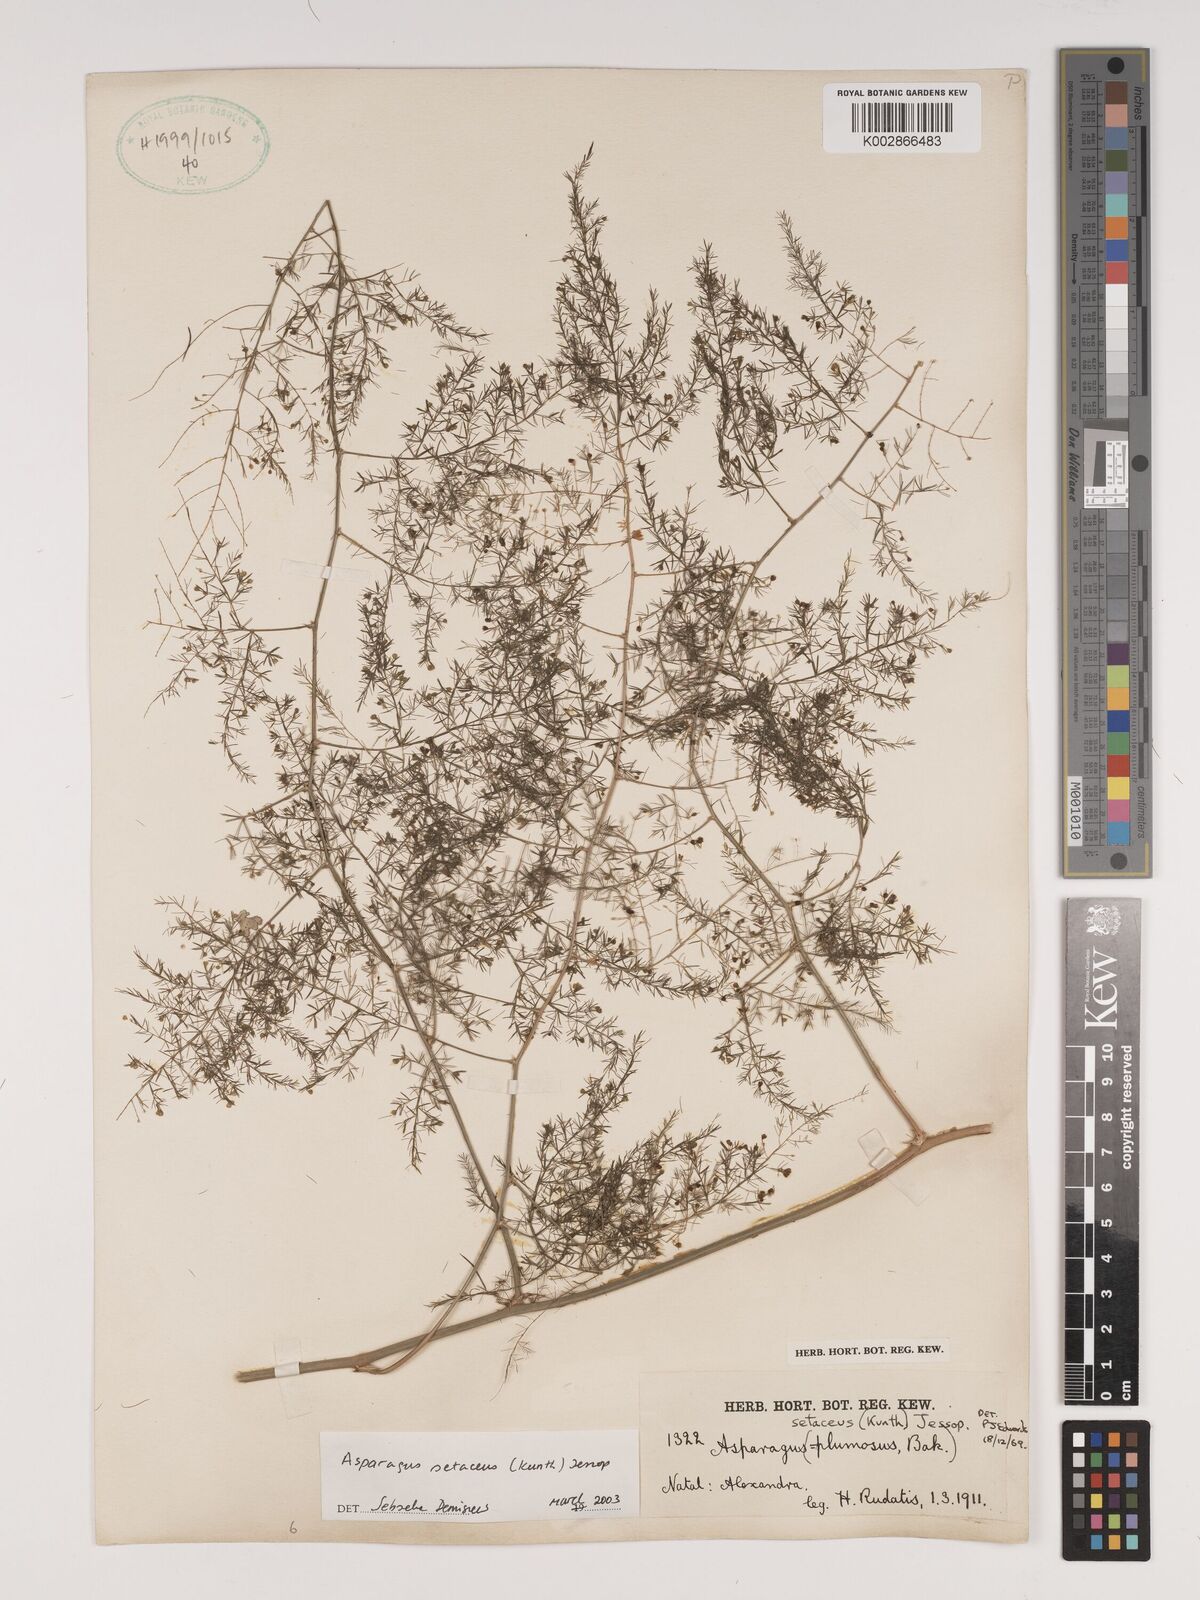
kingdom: Plantae
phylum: Tracheophyta
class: Liliopsida
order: Asparagales
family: Asparagaceae
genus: Asparagus
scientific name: Asparagus setaceus
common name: Common asparagus fern
